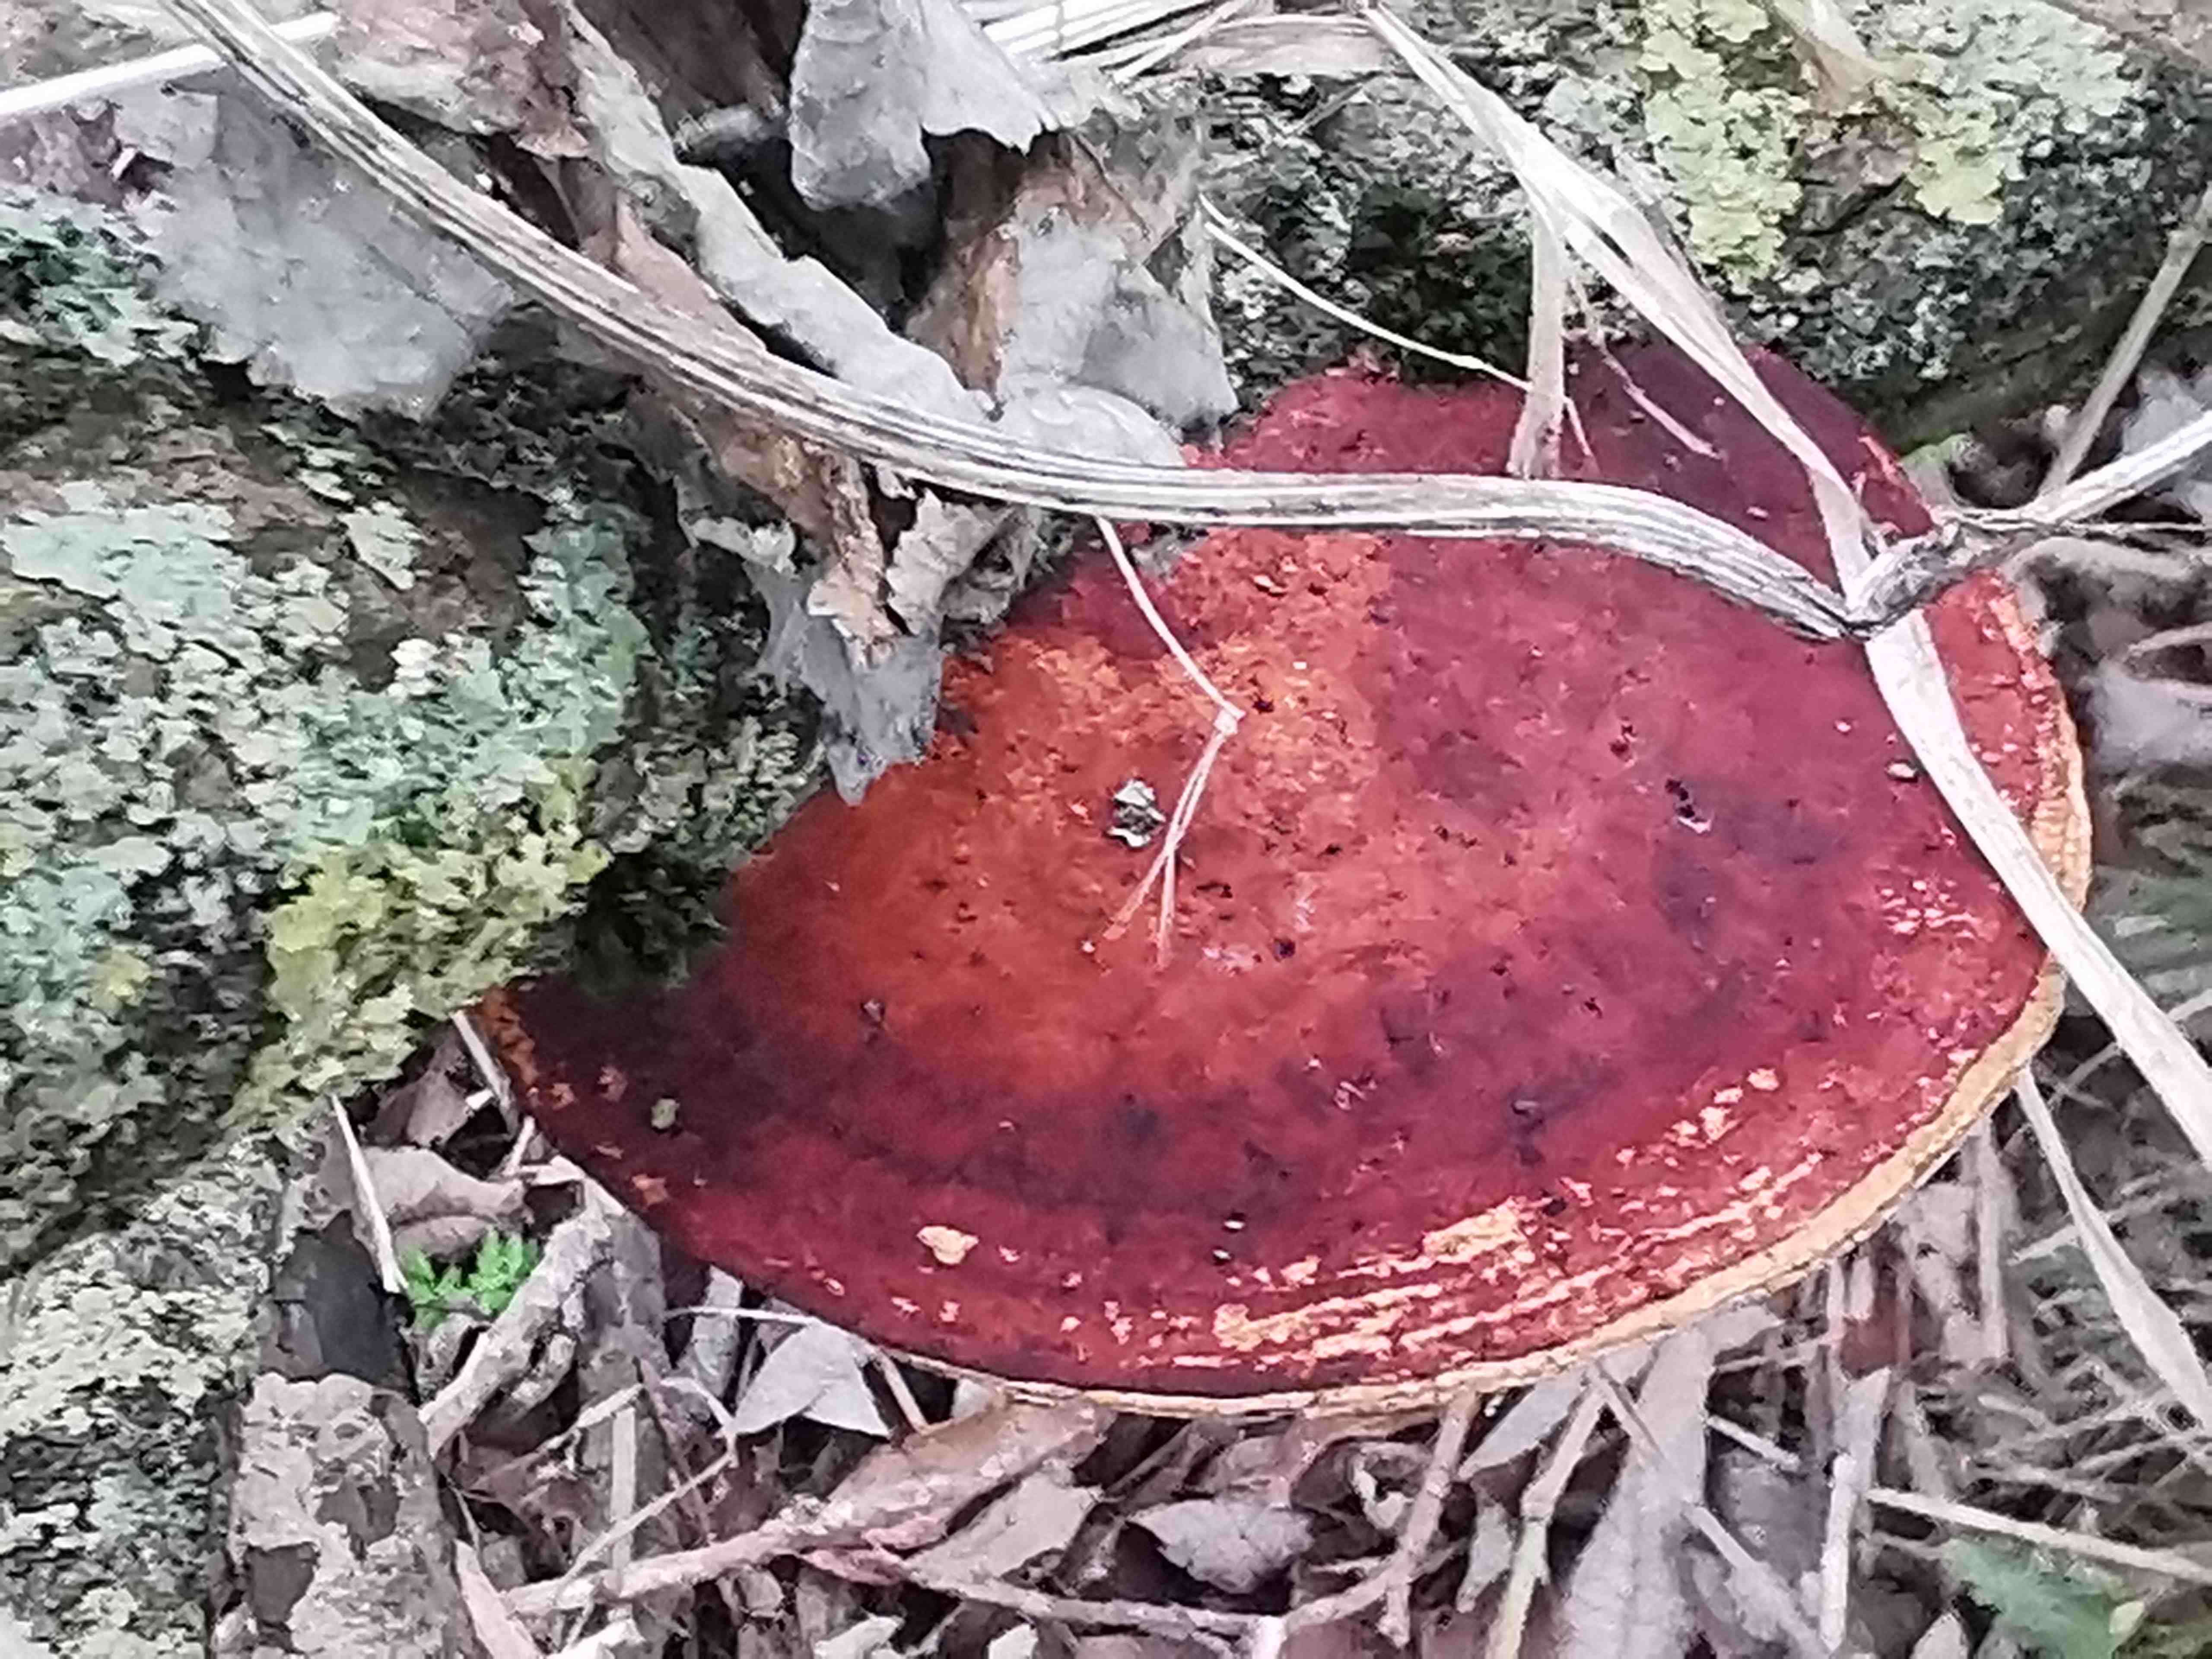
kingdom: Fungi
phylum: Basidiomycota
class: Agaricomycetes
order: Polyporales
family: Polyporaceae
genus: Daedaleopsis
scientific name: Daedaleopsis confragosa
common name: rødmende læderporesvamp
